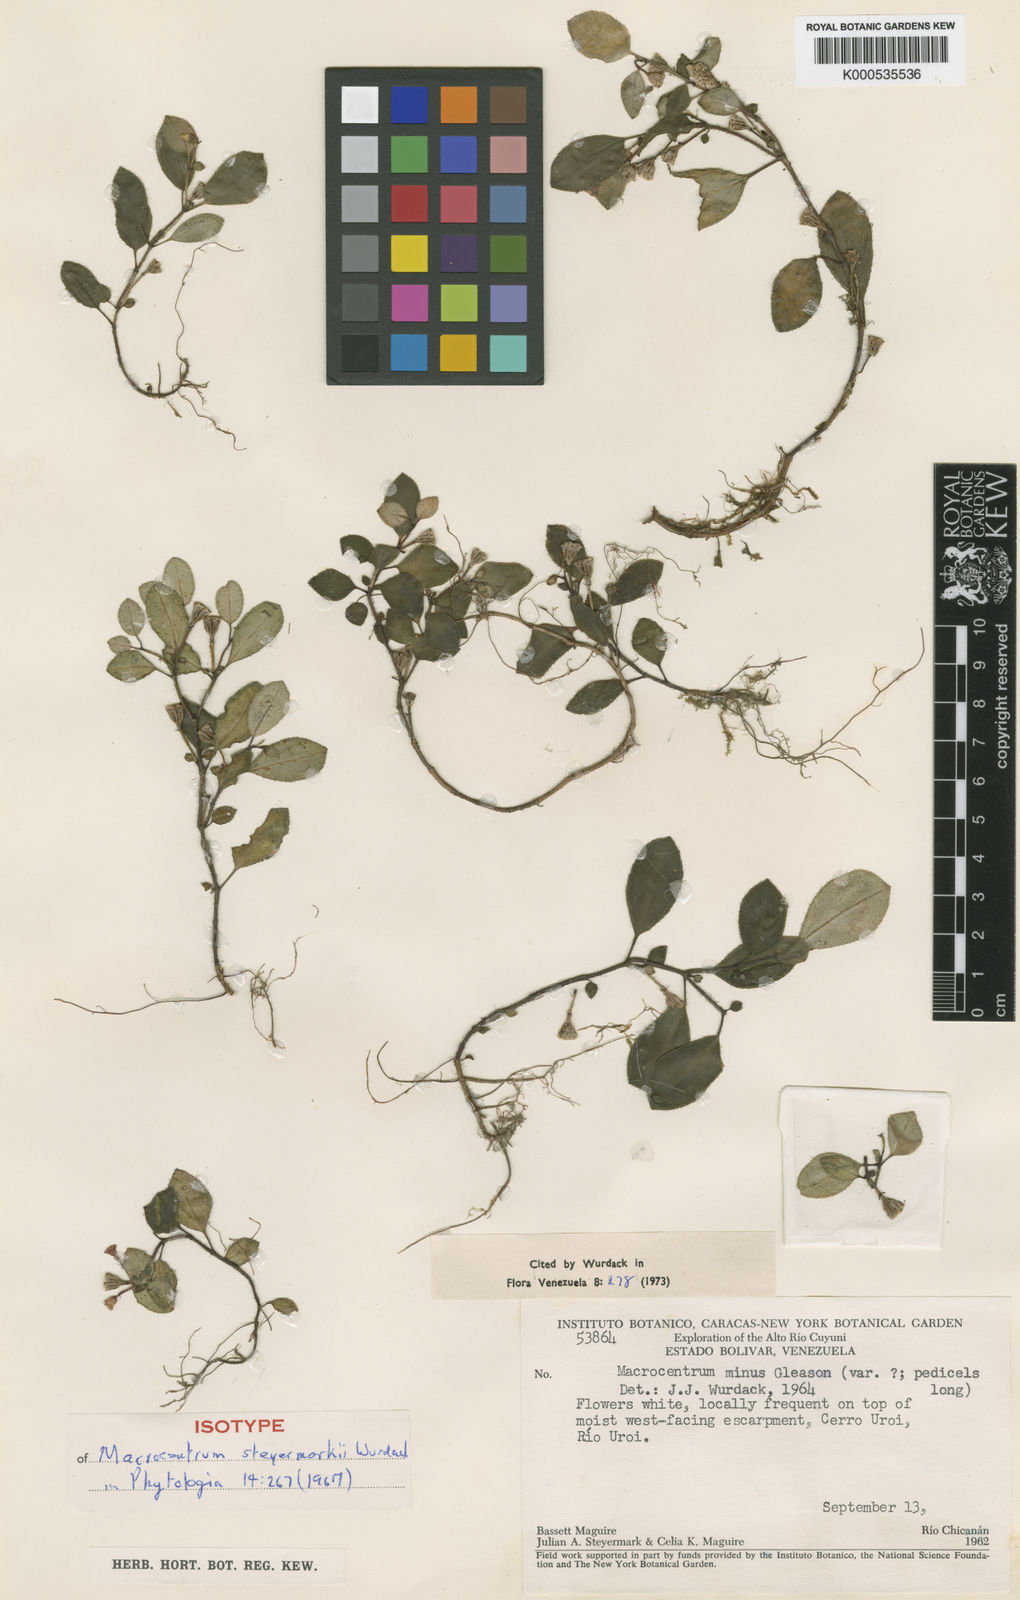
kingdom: Plantae
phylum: Tracheophyta
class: Magnoliopsida
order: Myrtales
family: Melastomataceae
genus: Macrocentrum
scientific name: Macrocentrum steyermarkii
